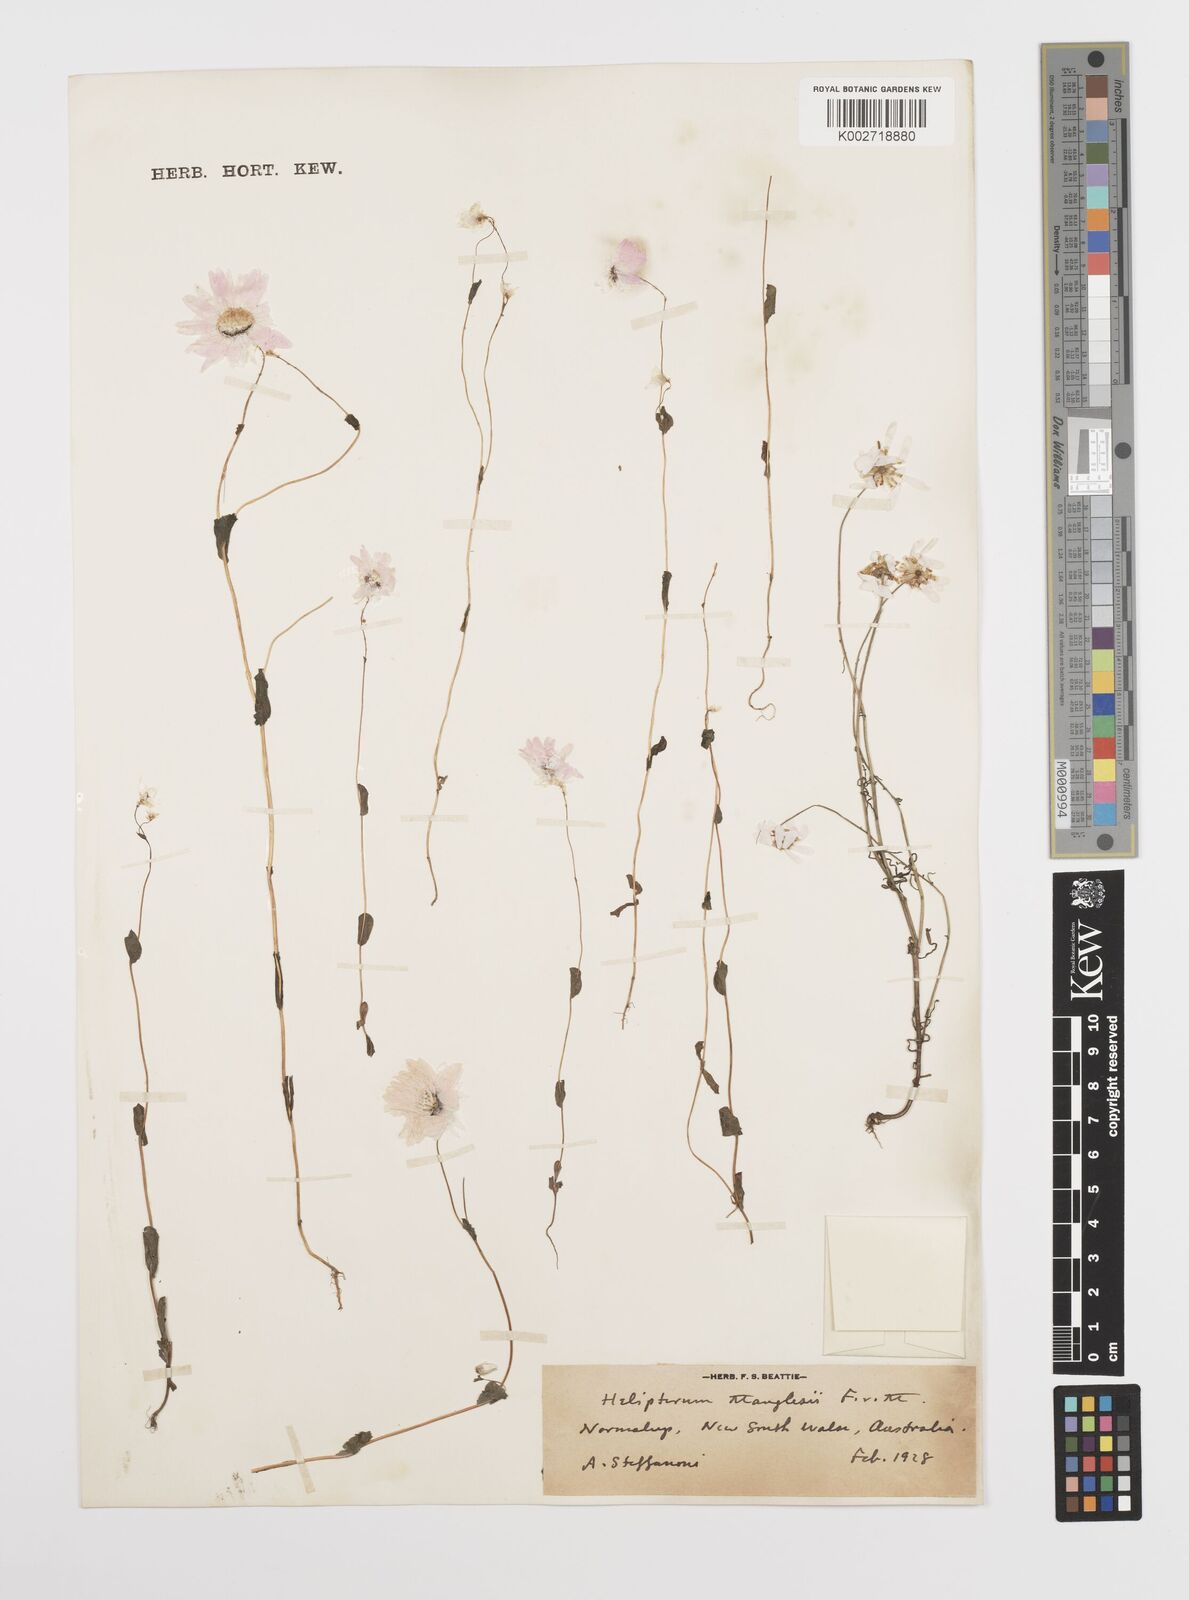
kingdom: Plantae
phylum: Tracheophyta
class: Magnoliopsida
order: Asterales
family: Asteraceae
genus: Rhodanthe
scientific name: Rhodanthe manglesii
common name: Pink sunray
